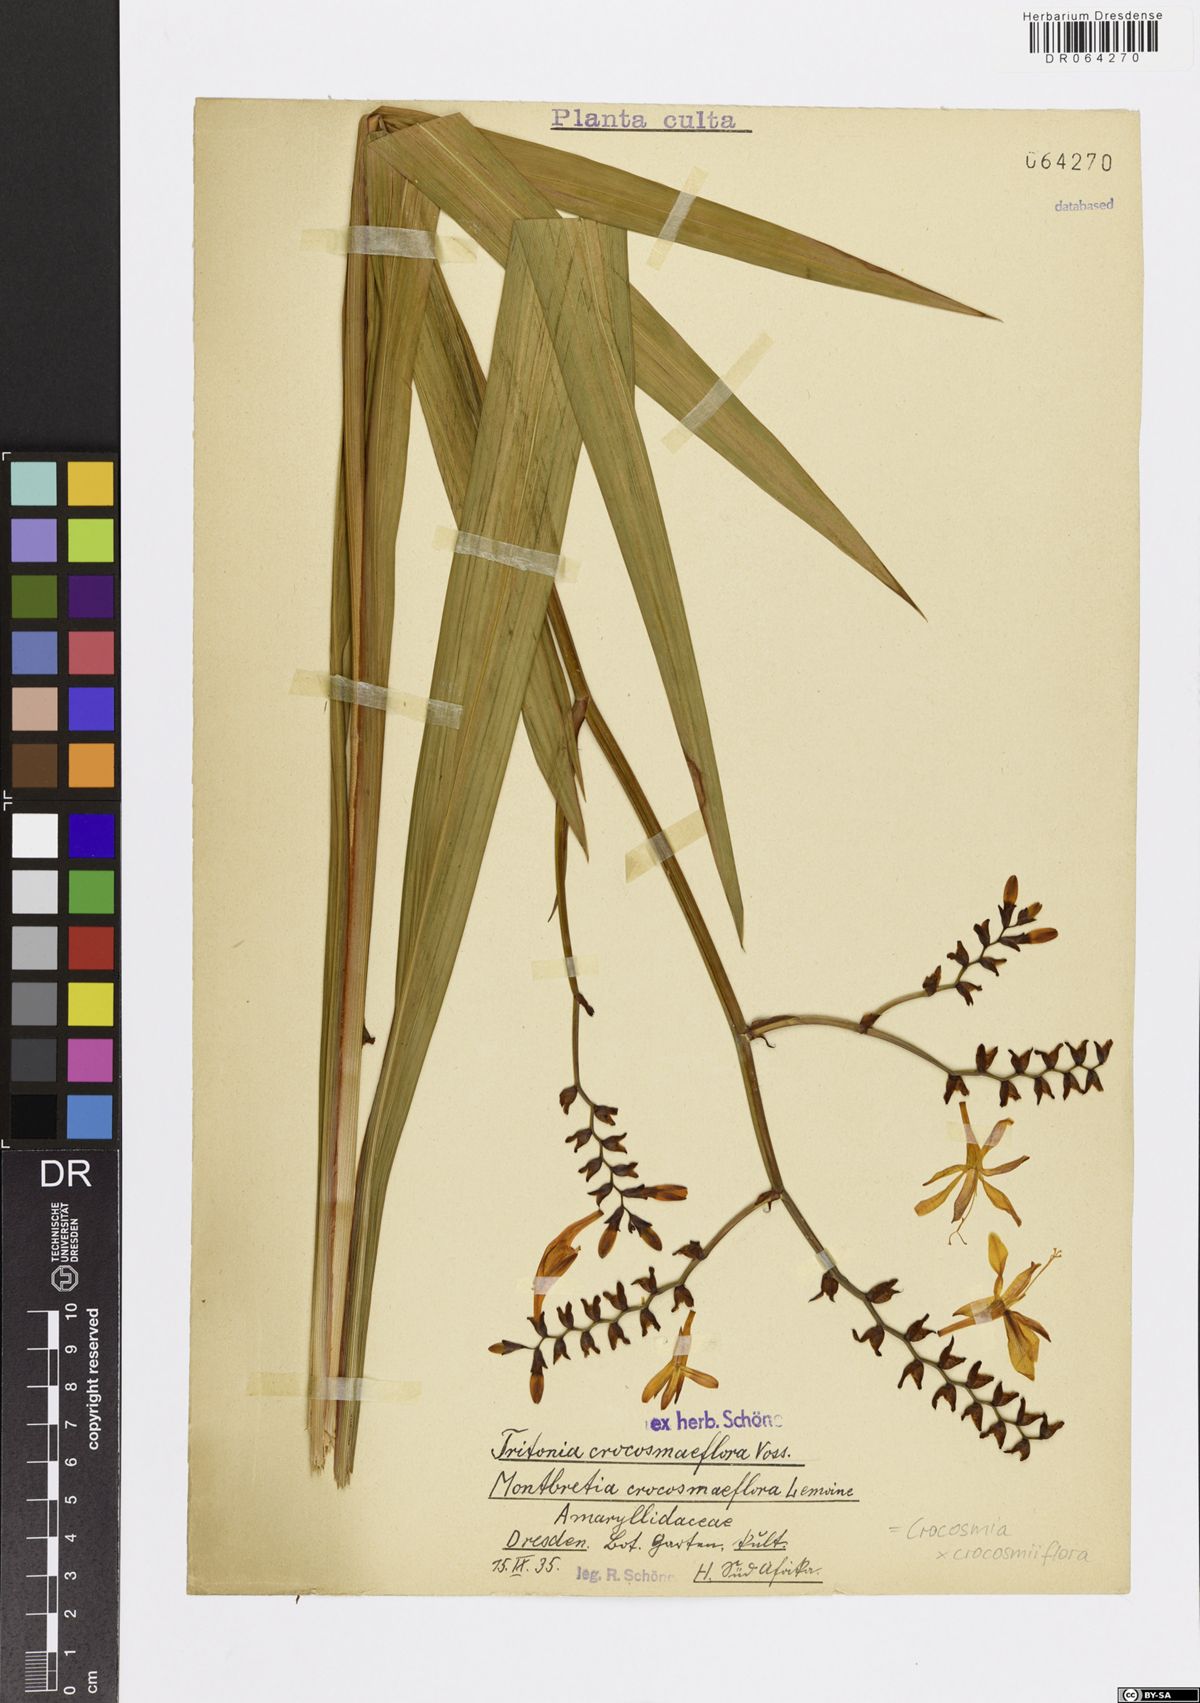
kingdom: Plantae
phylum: Tracheophyta
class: Liliopsida
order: Asparagales
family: Iridaceae
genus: Crocosmia
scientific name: Crocosmia crocosmiiflora
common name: Montbretia
